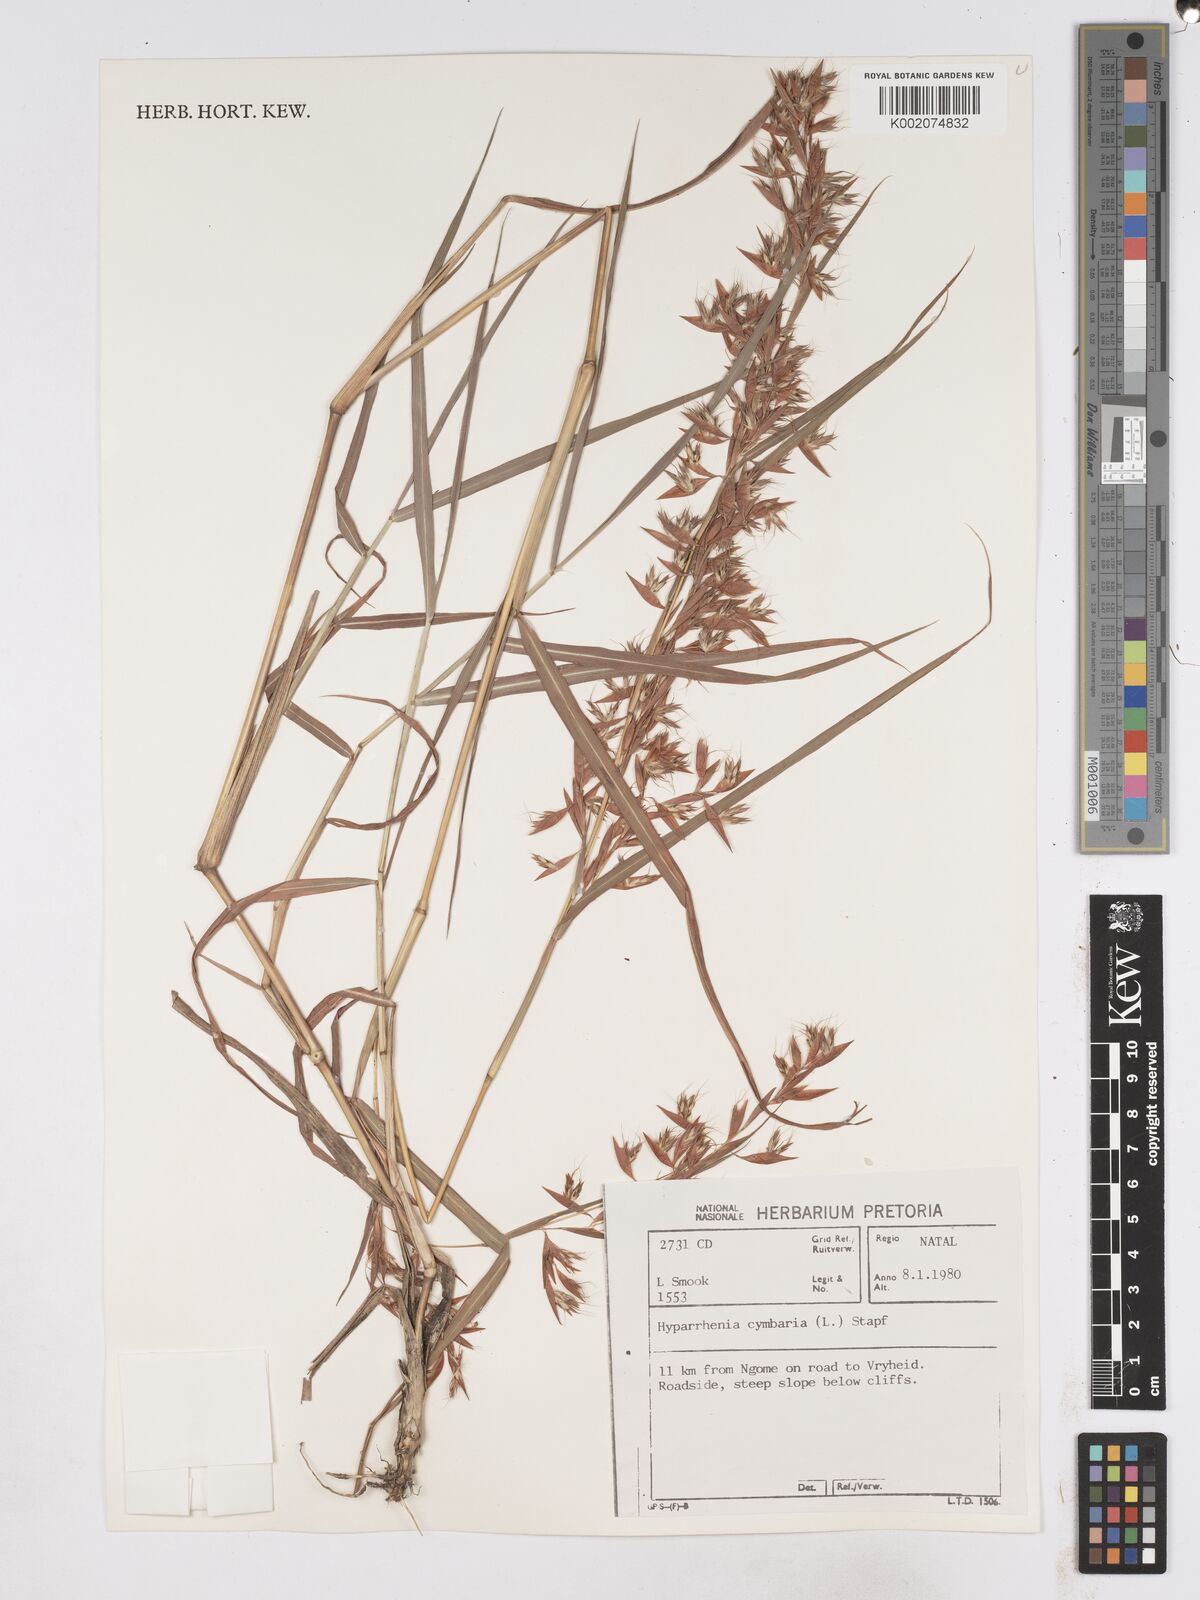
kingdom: Plantae
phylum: Tracheophyta
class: Liliopsida
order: Poales
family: Poaceae
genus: Hyparrhenia
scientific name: Hyparrhenia cymbaria
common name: Boat thatching grass
